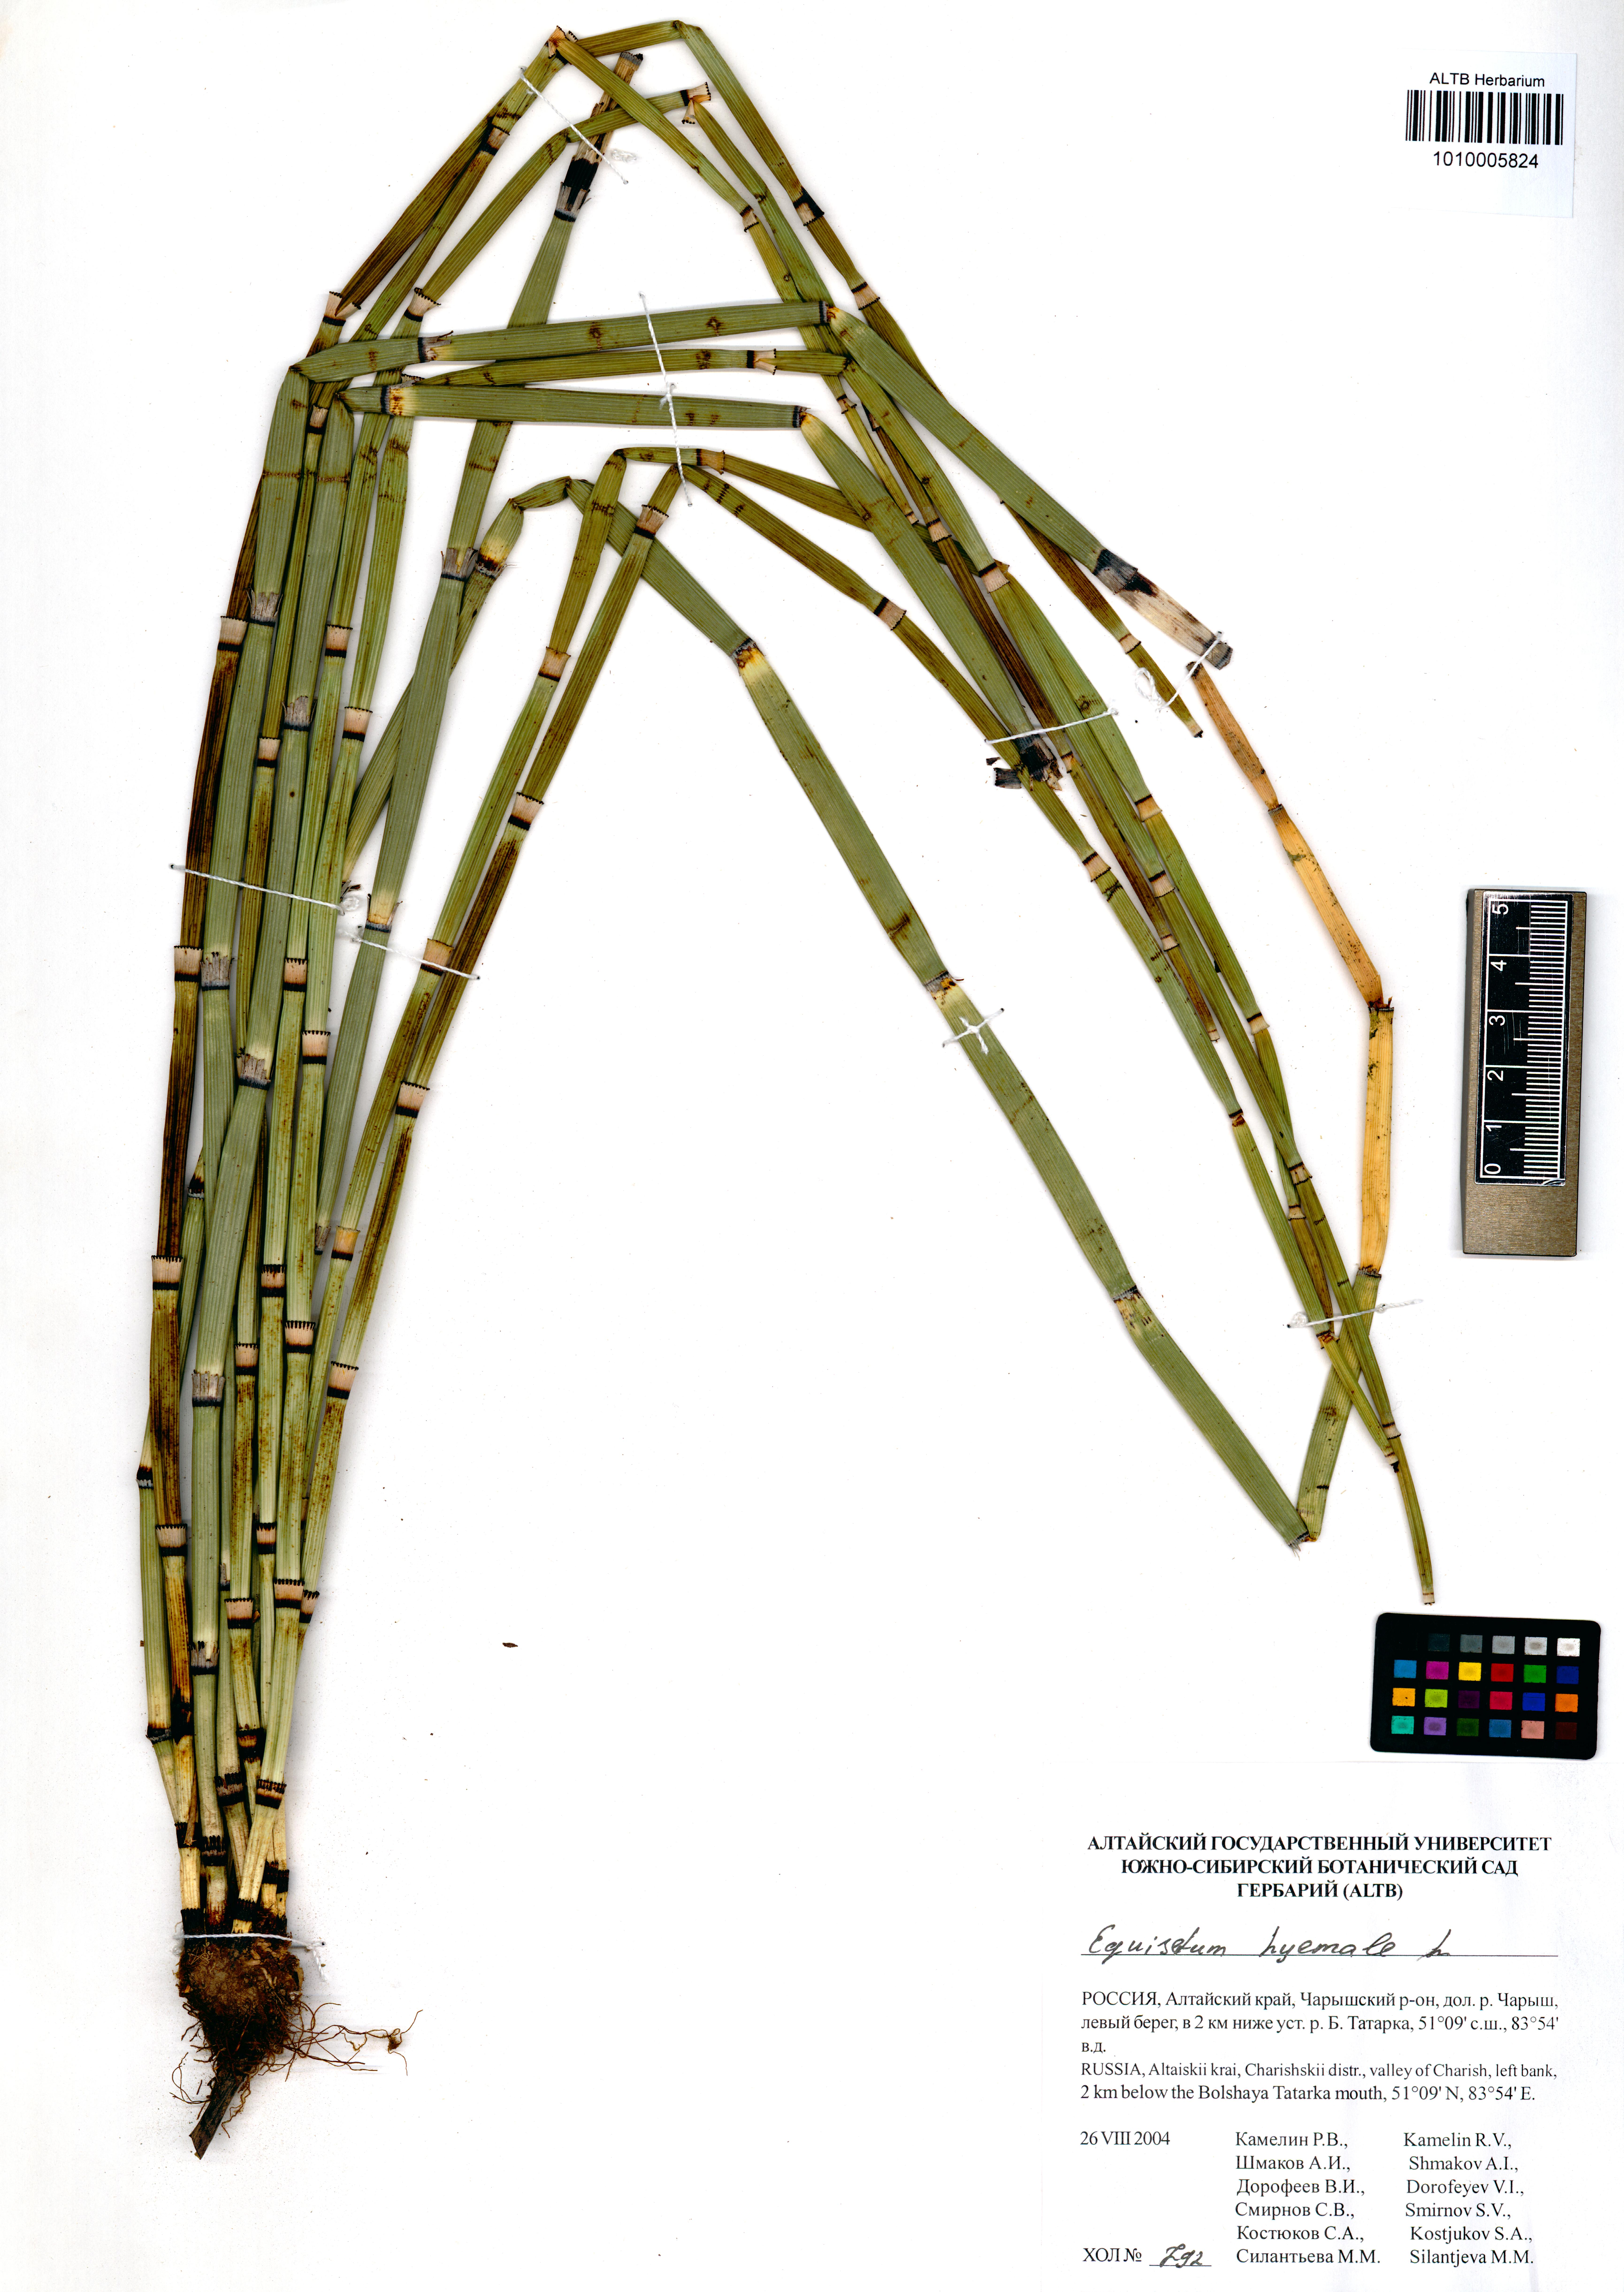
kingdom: Plantae
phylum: Tracheophyta
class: Polypodiopsida
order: Equisetales
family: Equisetaceae
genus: Equisetum
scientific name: Equisetum hyemale
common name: Rough horsetail
